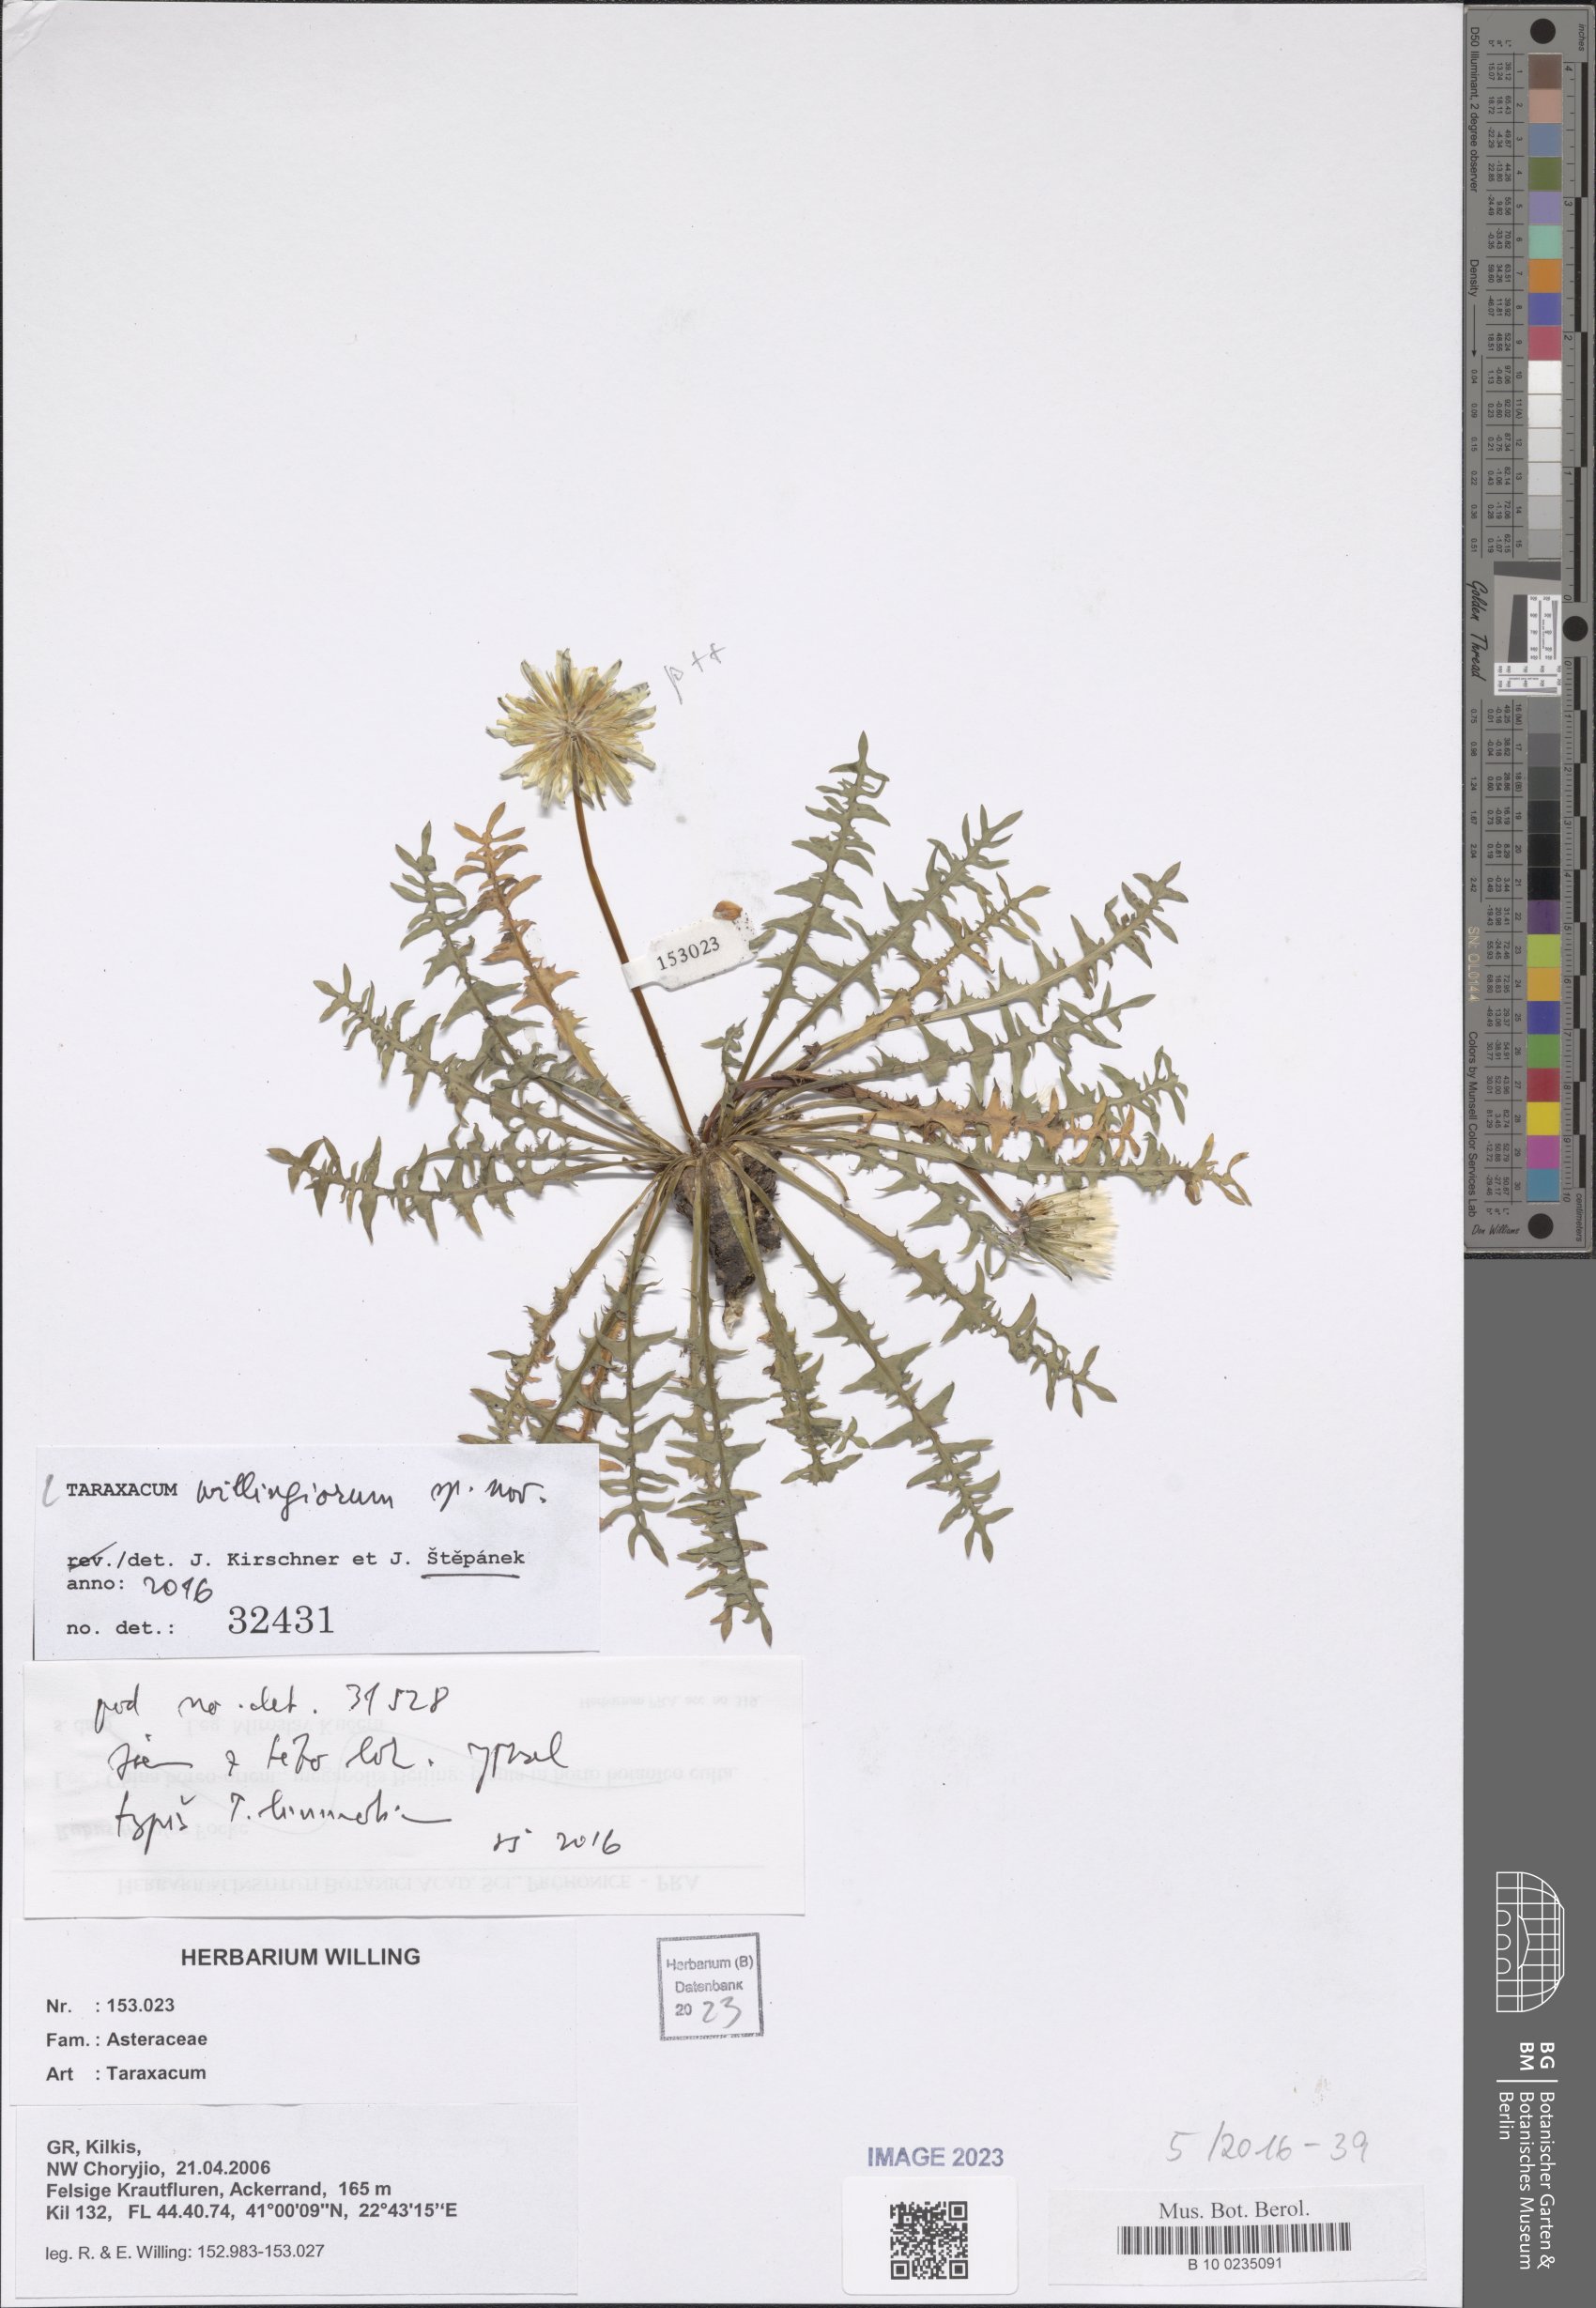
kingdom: Plantae
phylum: Tracheophyta
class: Magnoliopsida
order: Asterales
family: Asteraceae
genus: Taraxacum
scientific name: Taraxacum
